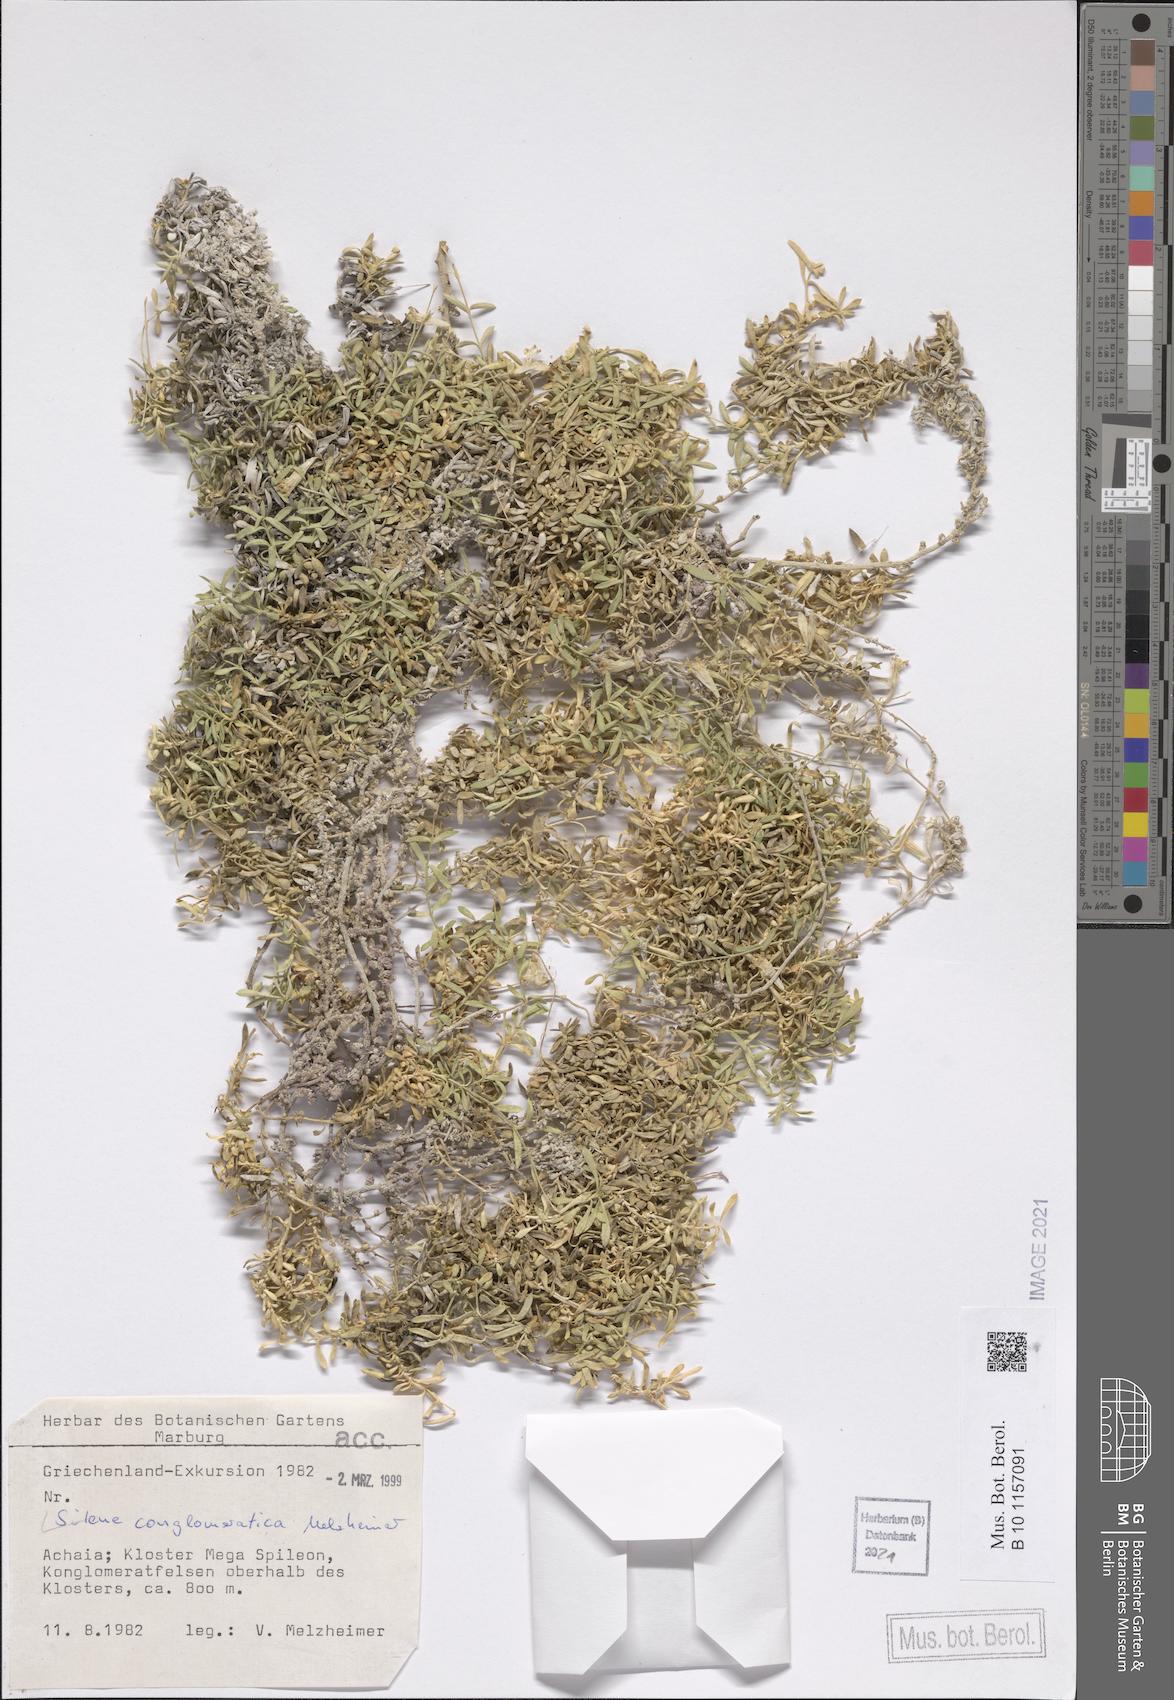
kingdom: Plantae
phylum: Tracheophyta
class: Magnoliopsida
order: Caryophyllales
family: Caryophyllaceae
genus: Silene
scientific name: Silene conglomeratica
